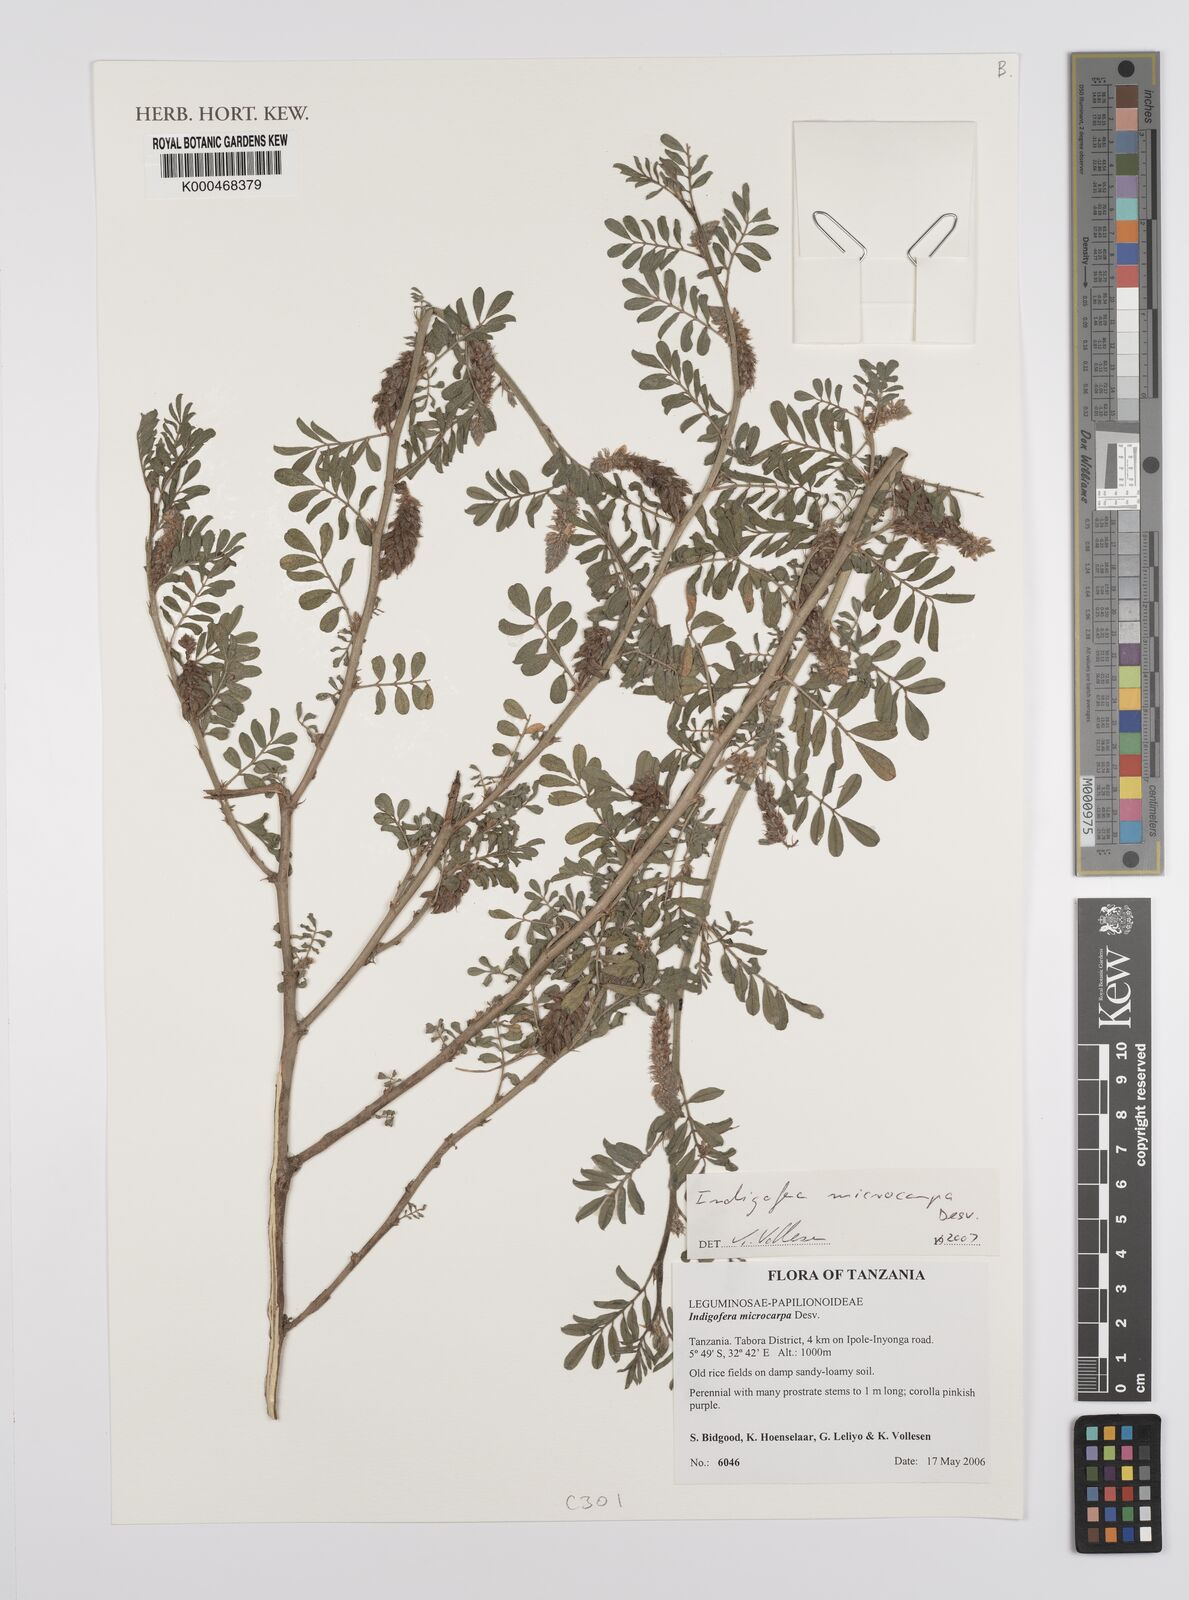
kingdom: Plantae
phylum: Tracheophyta
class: Magnoliopsida
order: Fabales
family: Fabaceae
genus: Indigofera
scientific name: Indigofera microcarpa
